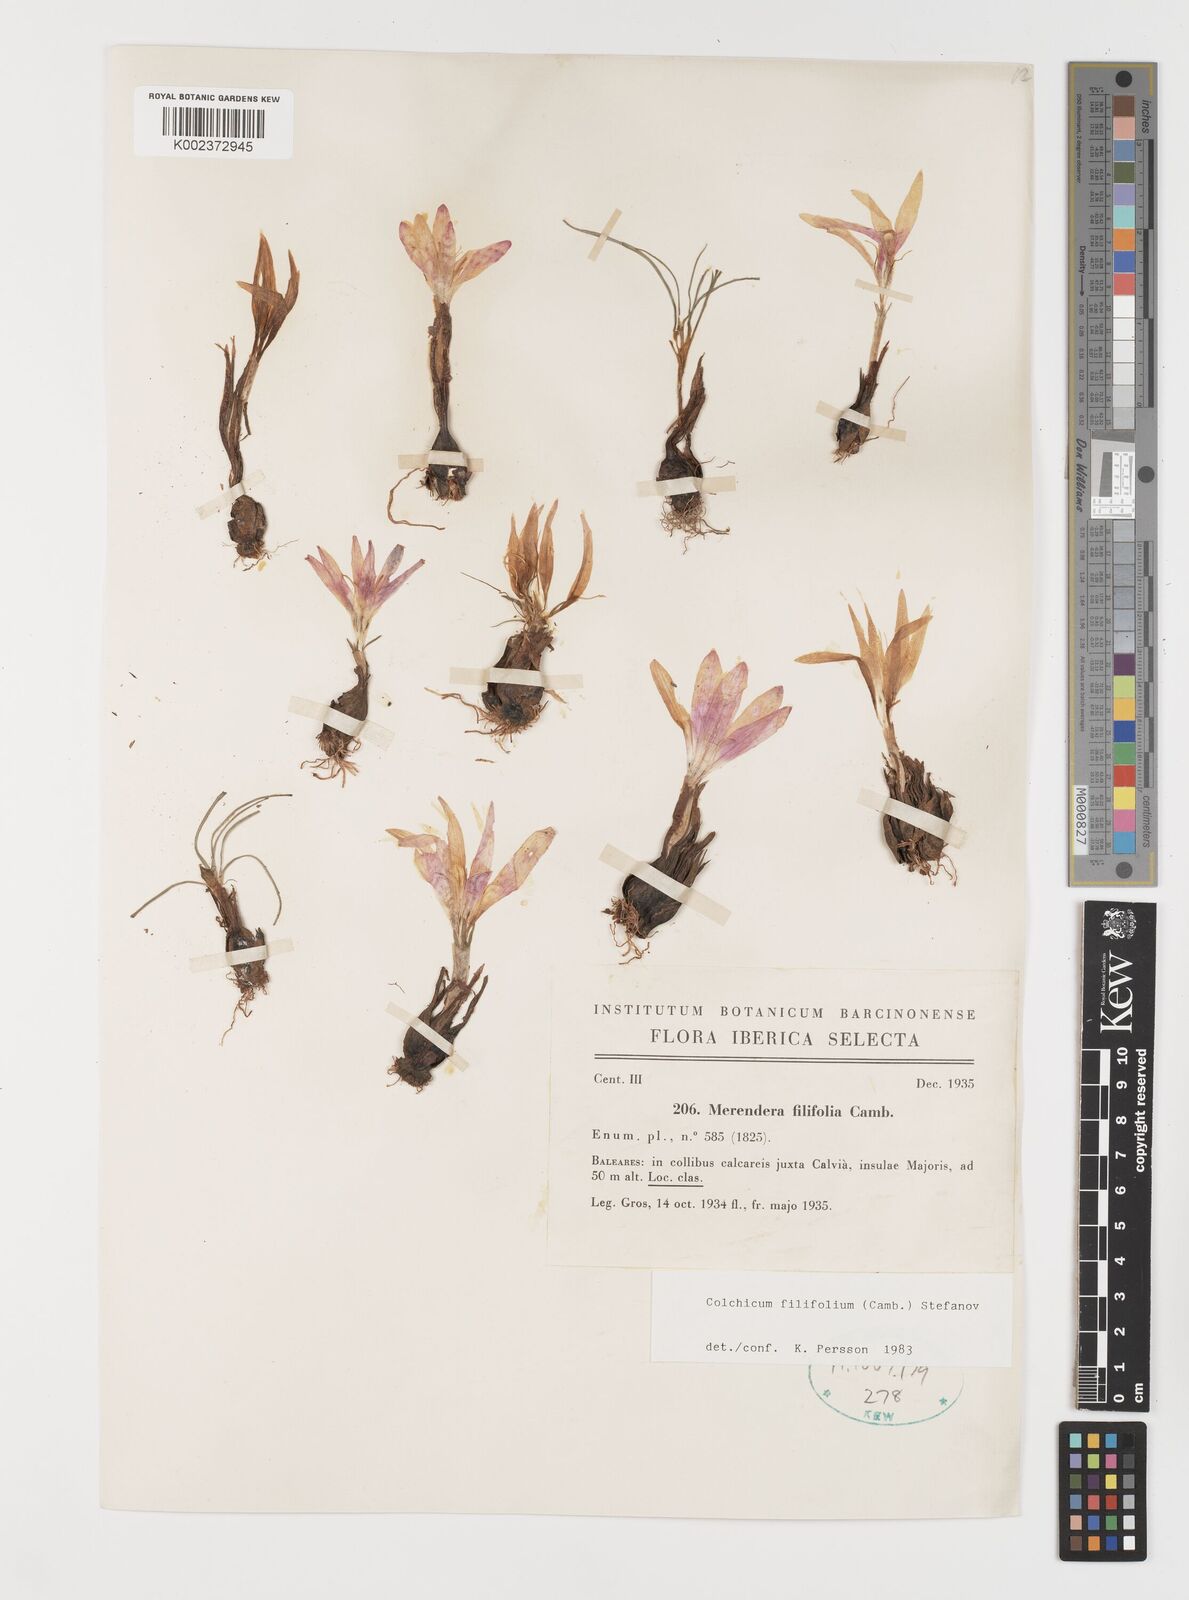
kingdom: Plantae
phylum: Tracheophyta
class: Liliopsida
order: Liliales
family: Colchicaceae
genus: Colchicum
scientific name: Colchicum filifolium
